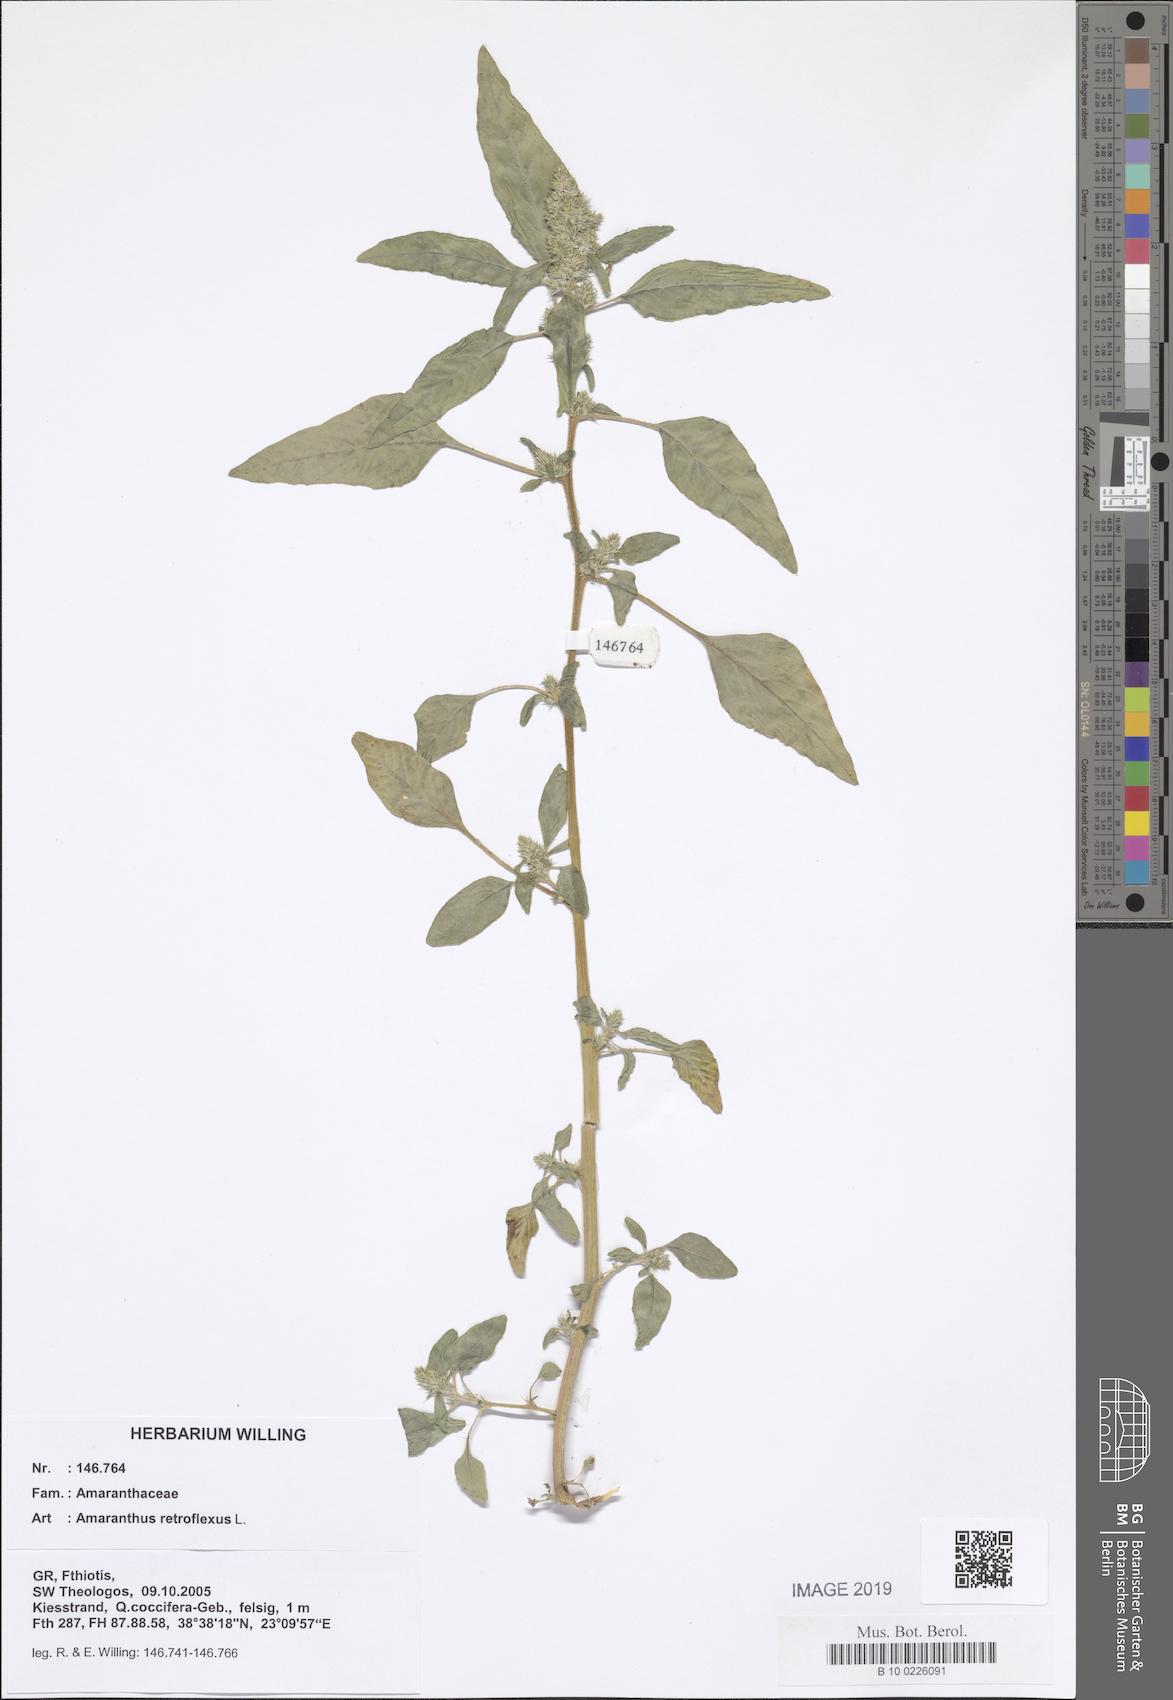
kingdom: Plantae
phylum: Tracheophyta
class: Magnoliopsida
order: Caryophyllales
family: Amaranthaceae
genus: Amaranthus
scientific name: Amaranthus retroflexus
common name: Redroot amaranth
